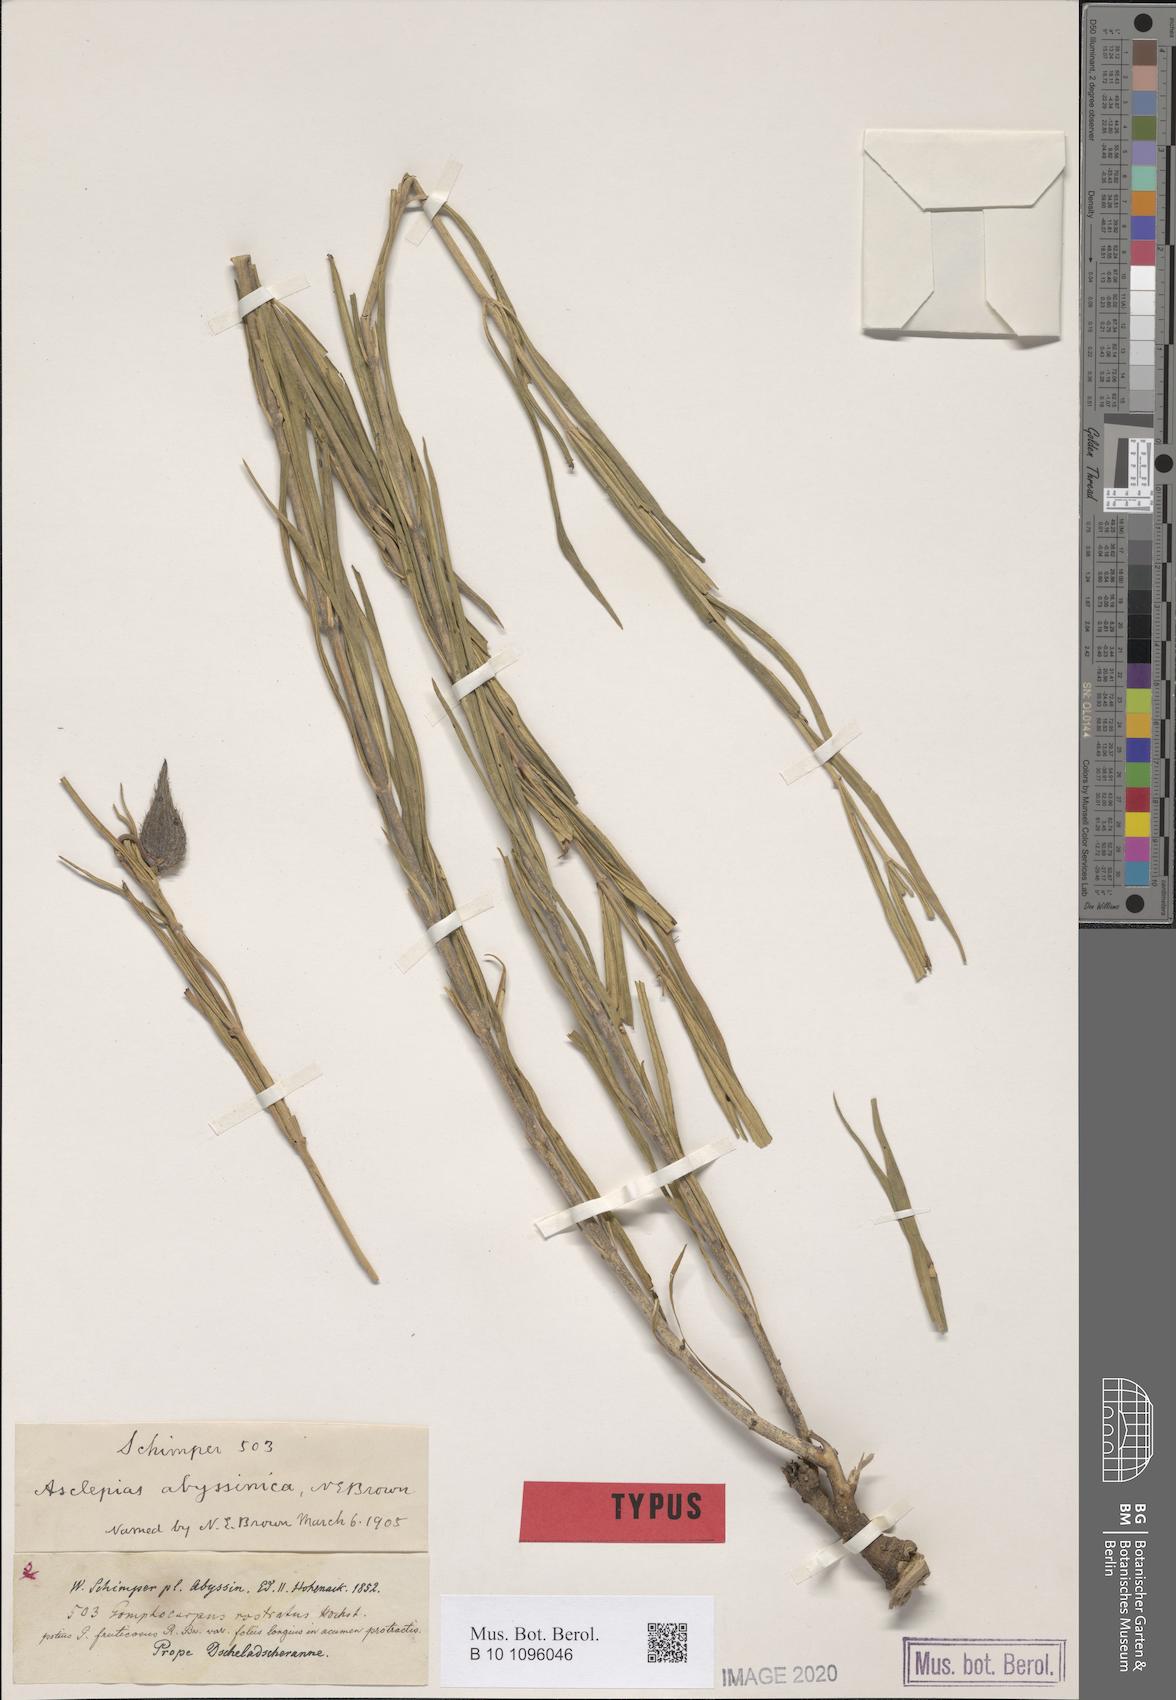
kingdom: Plantae
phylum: Tracheophyta
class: Magnoliopsida
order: Gentianales
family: Apocynaceae
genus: Gomphocarpus
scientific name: Gomphocarpus abyssinicus
